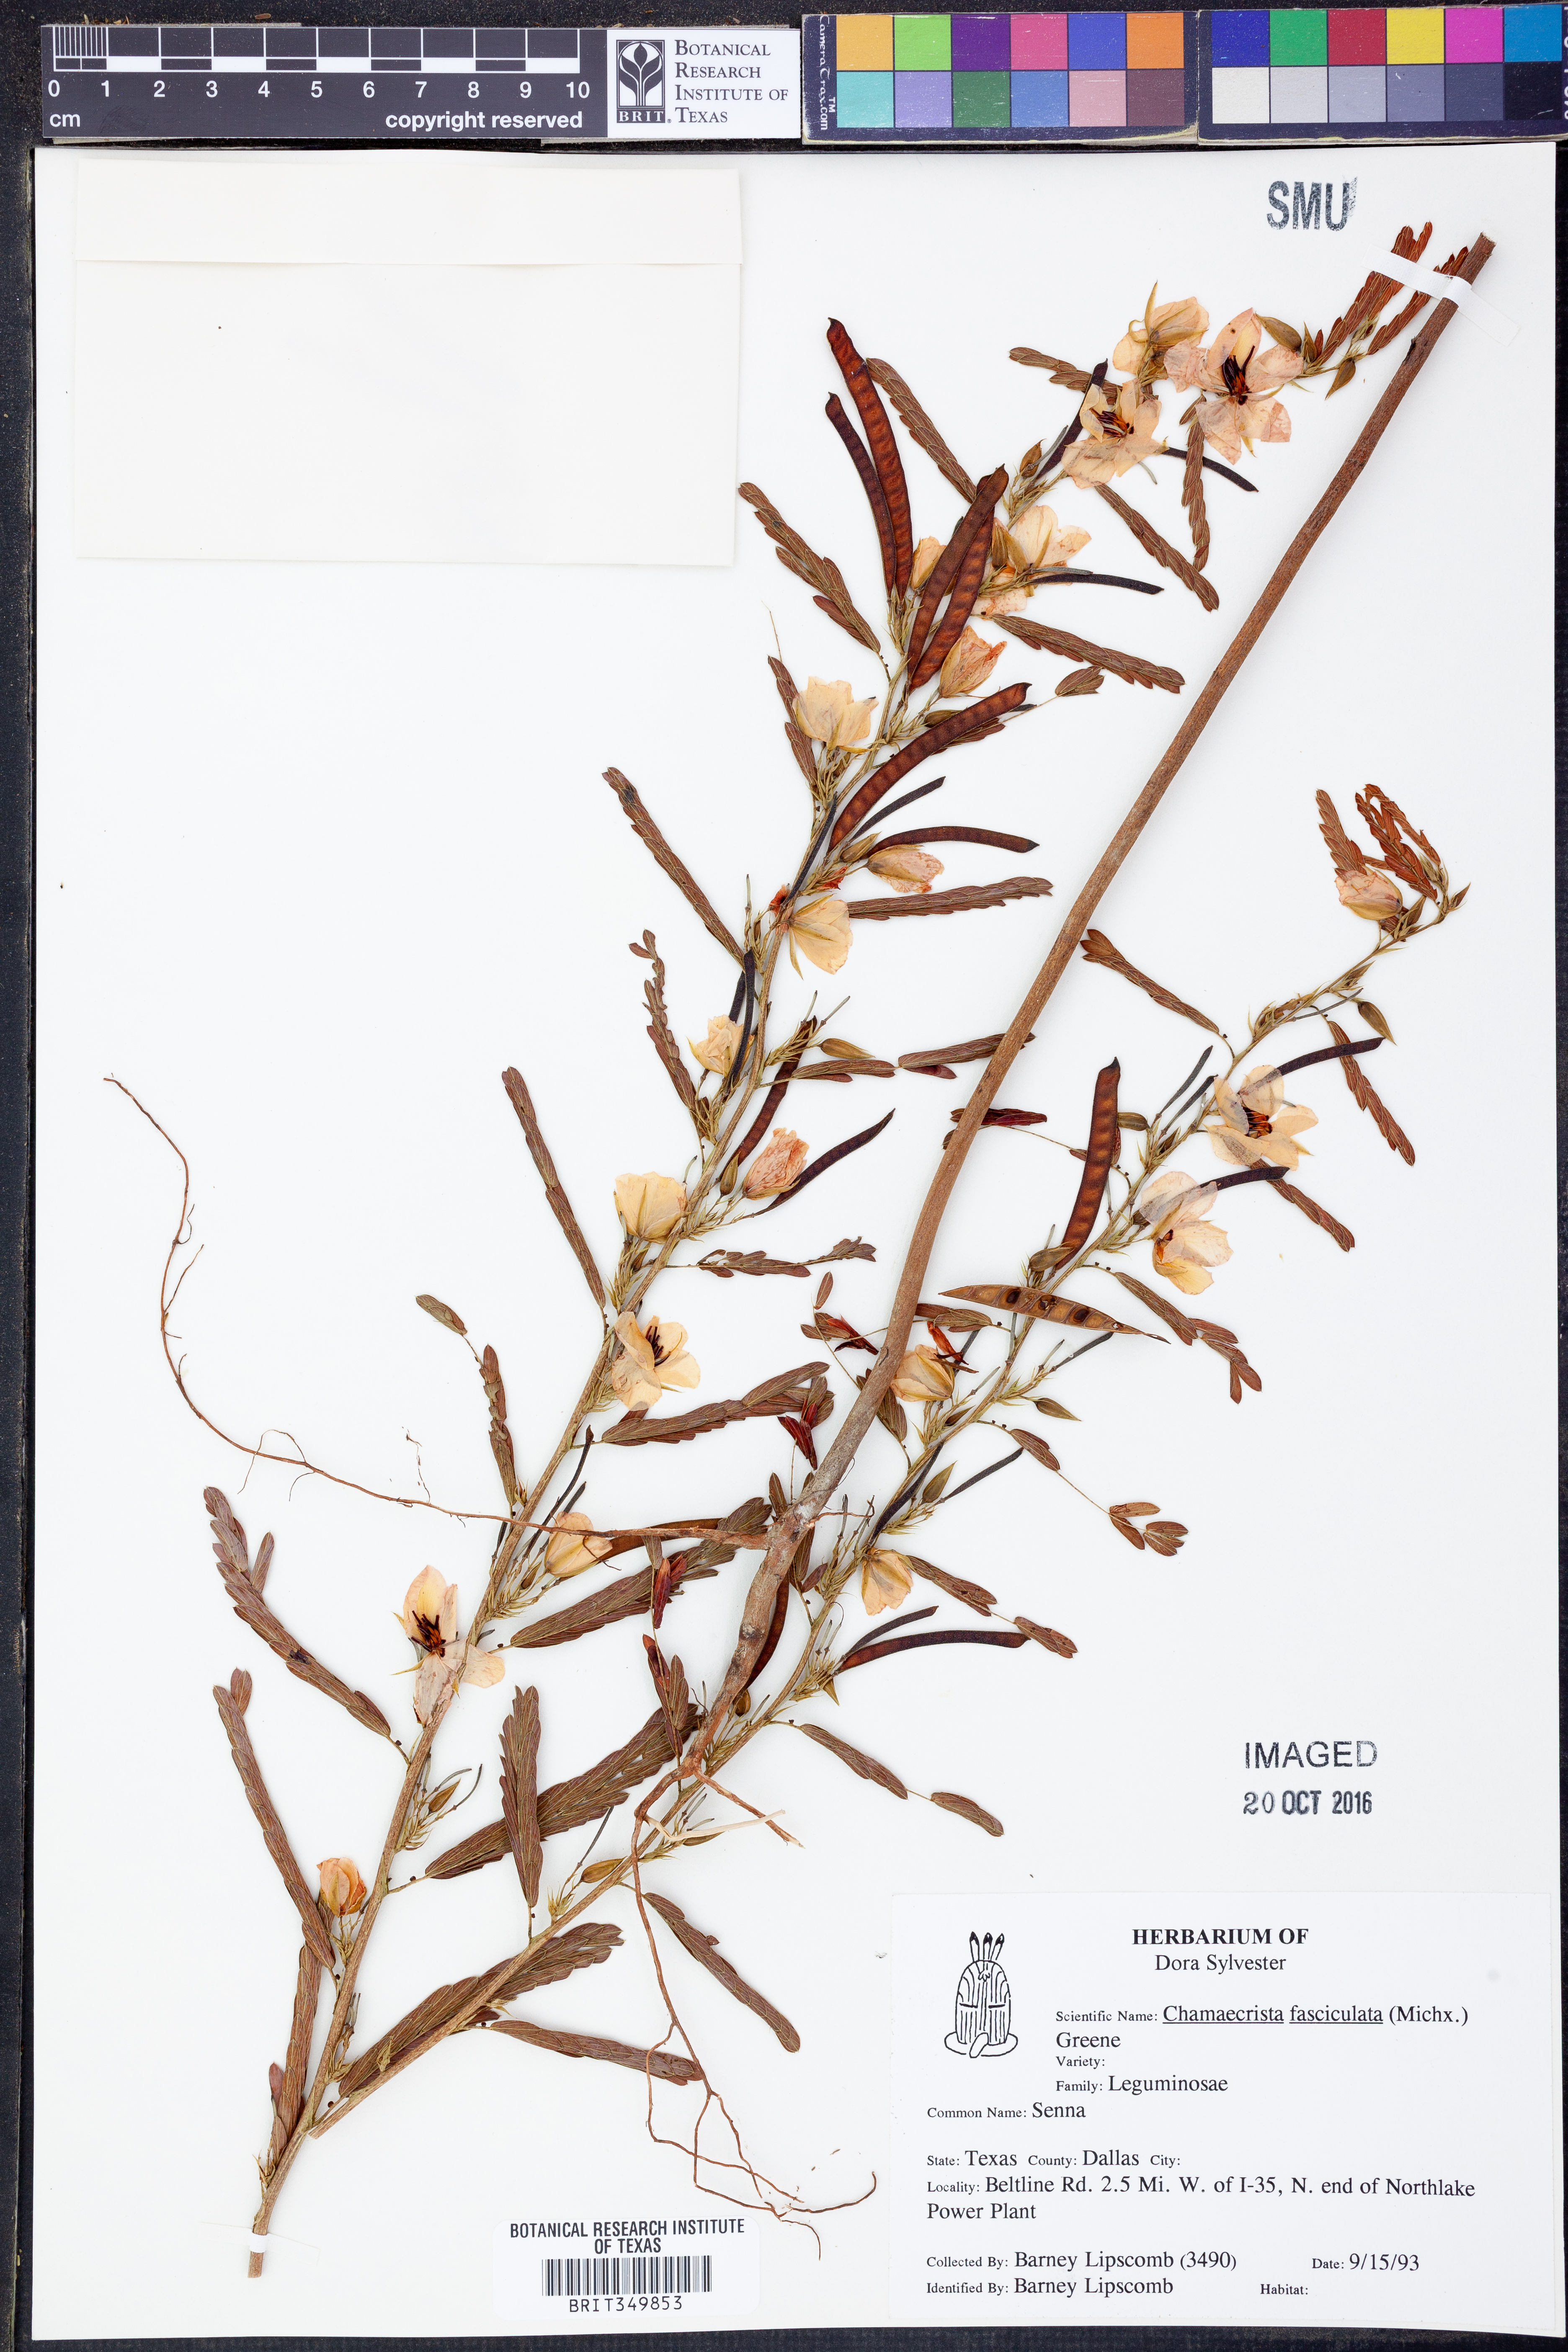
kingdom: Plantae
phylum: Tracheophyta
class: Magnoliopsida
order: Fabales
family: Fabaceae
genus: Chamaecrista
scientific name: Chamaecrista fasciculata
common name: Golden cassia
